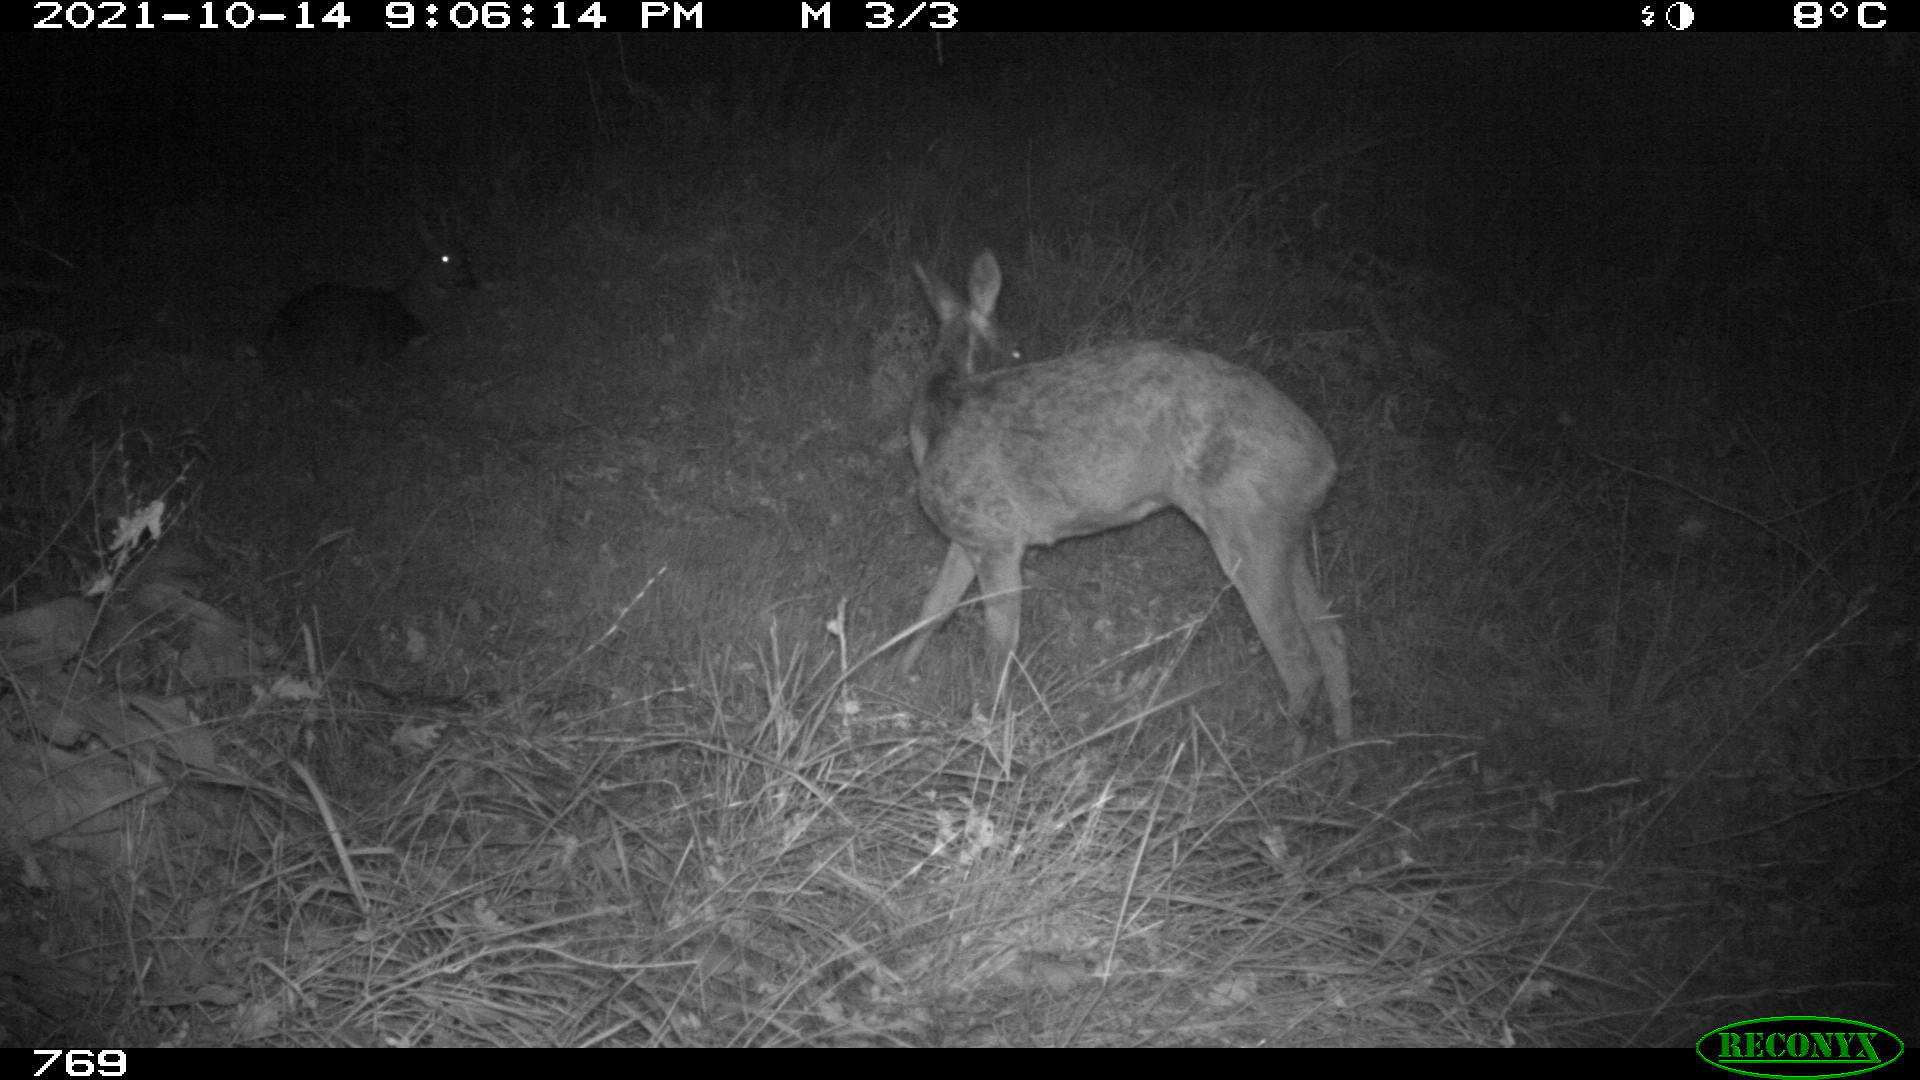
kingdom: Animalia
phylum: Chordata
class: Mammalia
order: Artiodactyla
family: Cervidae
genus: Capreolus
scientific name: Capreolus capreolus
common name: Western roe deer
